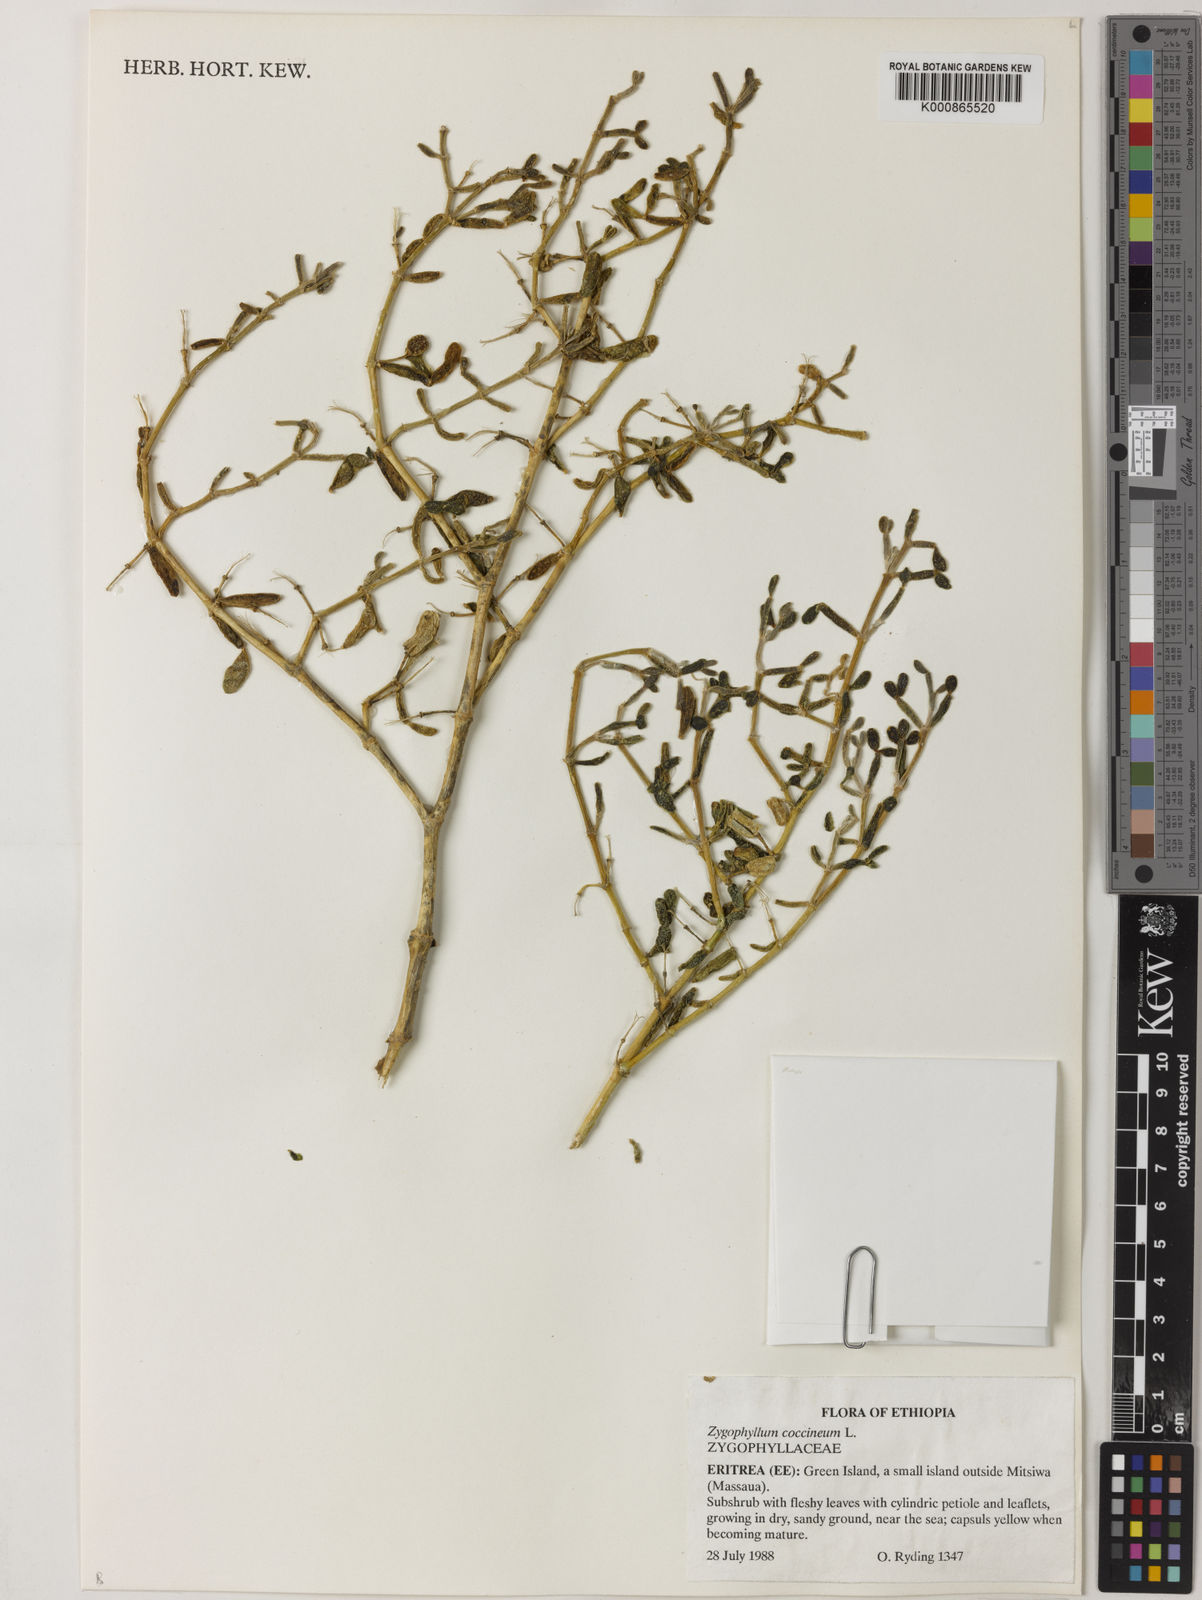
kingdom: Plantae
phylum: Tracheophyta
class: Magnoliopsida
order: Zygophyllales
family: Zygophyllaceae
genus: Tetraena
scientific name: Tetraena coccinea
